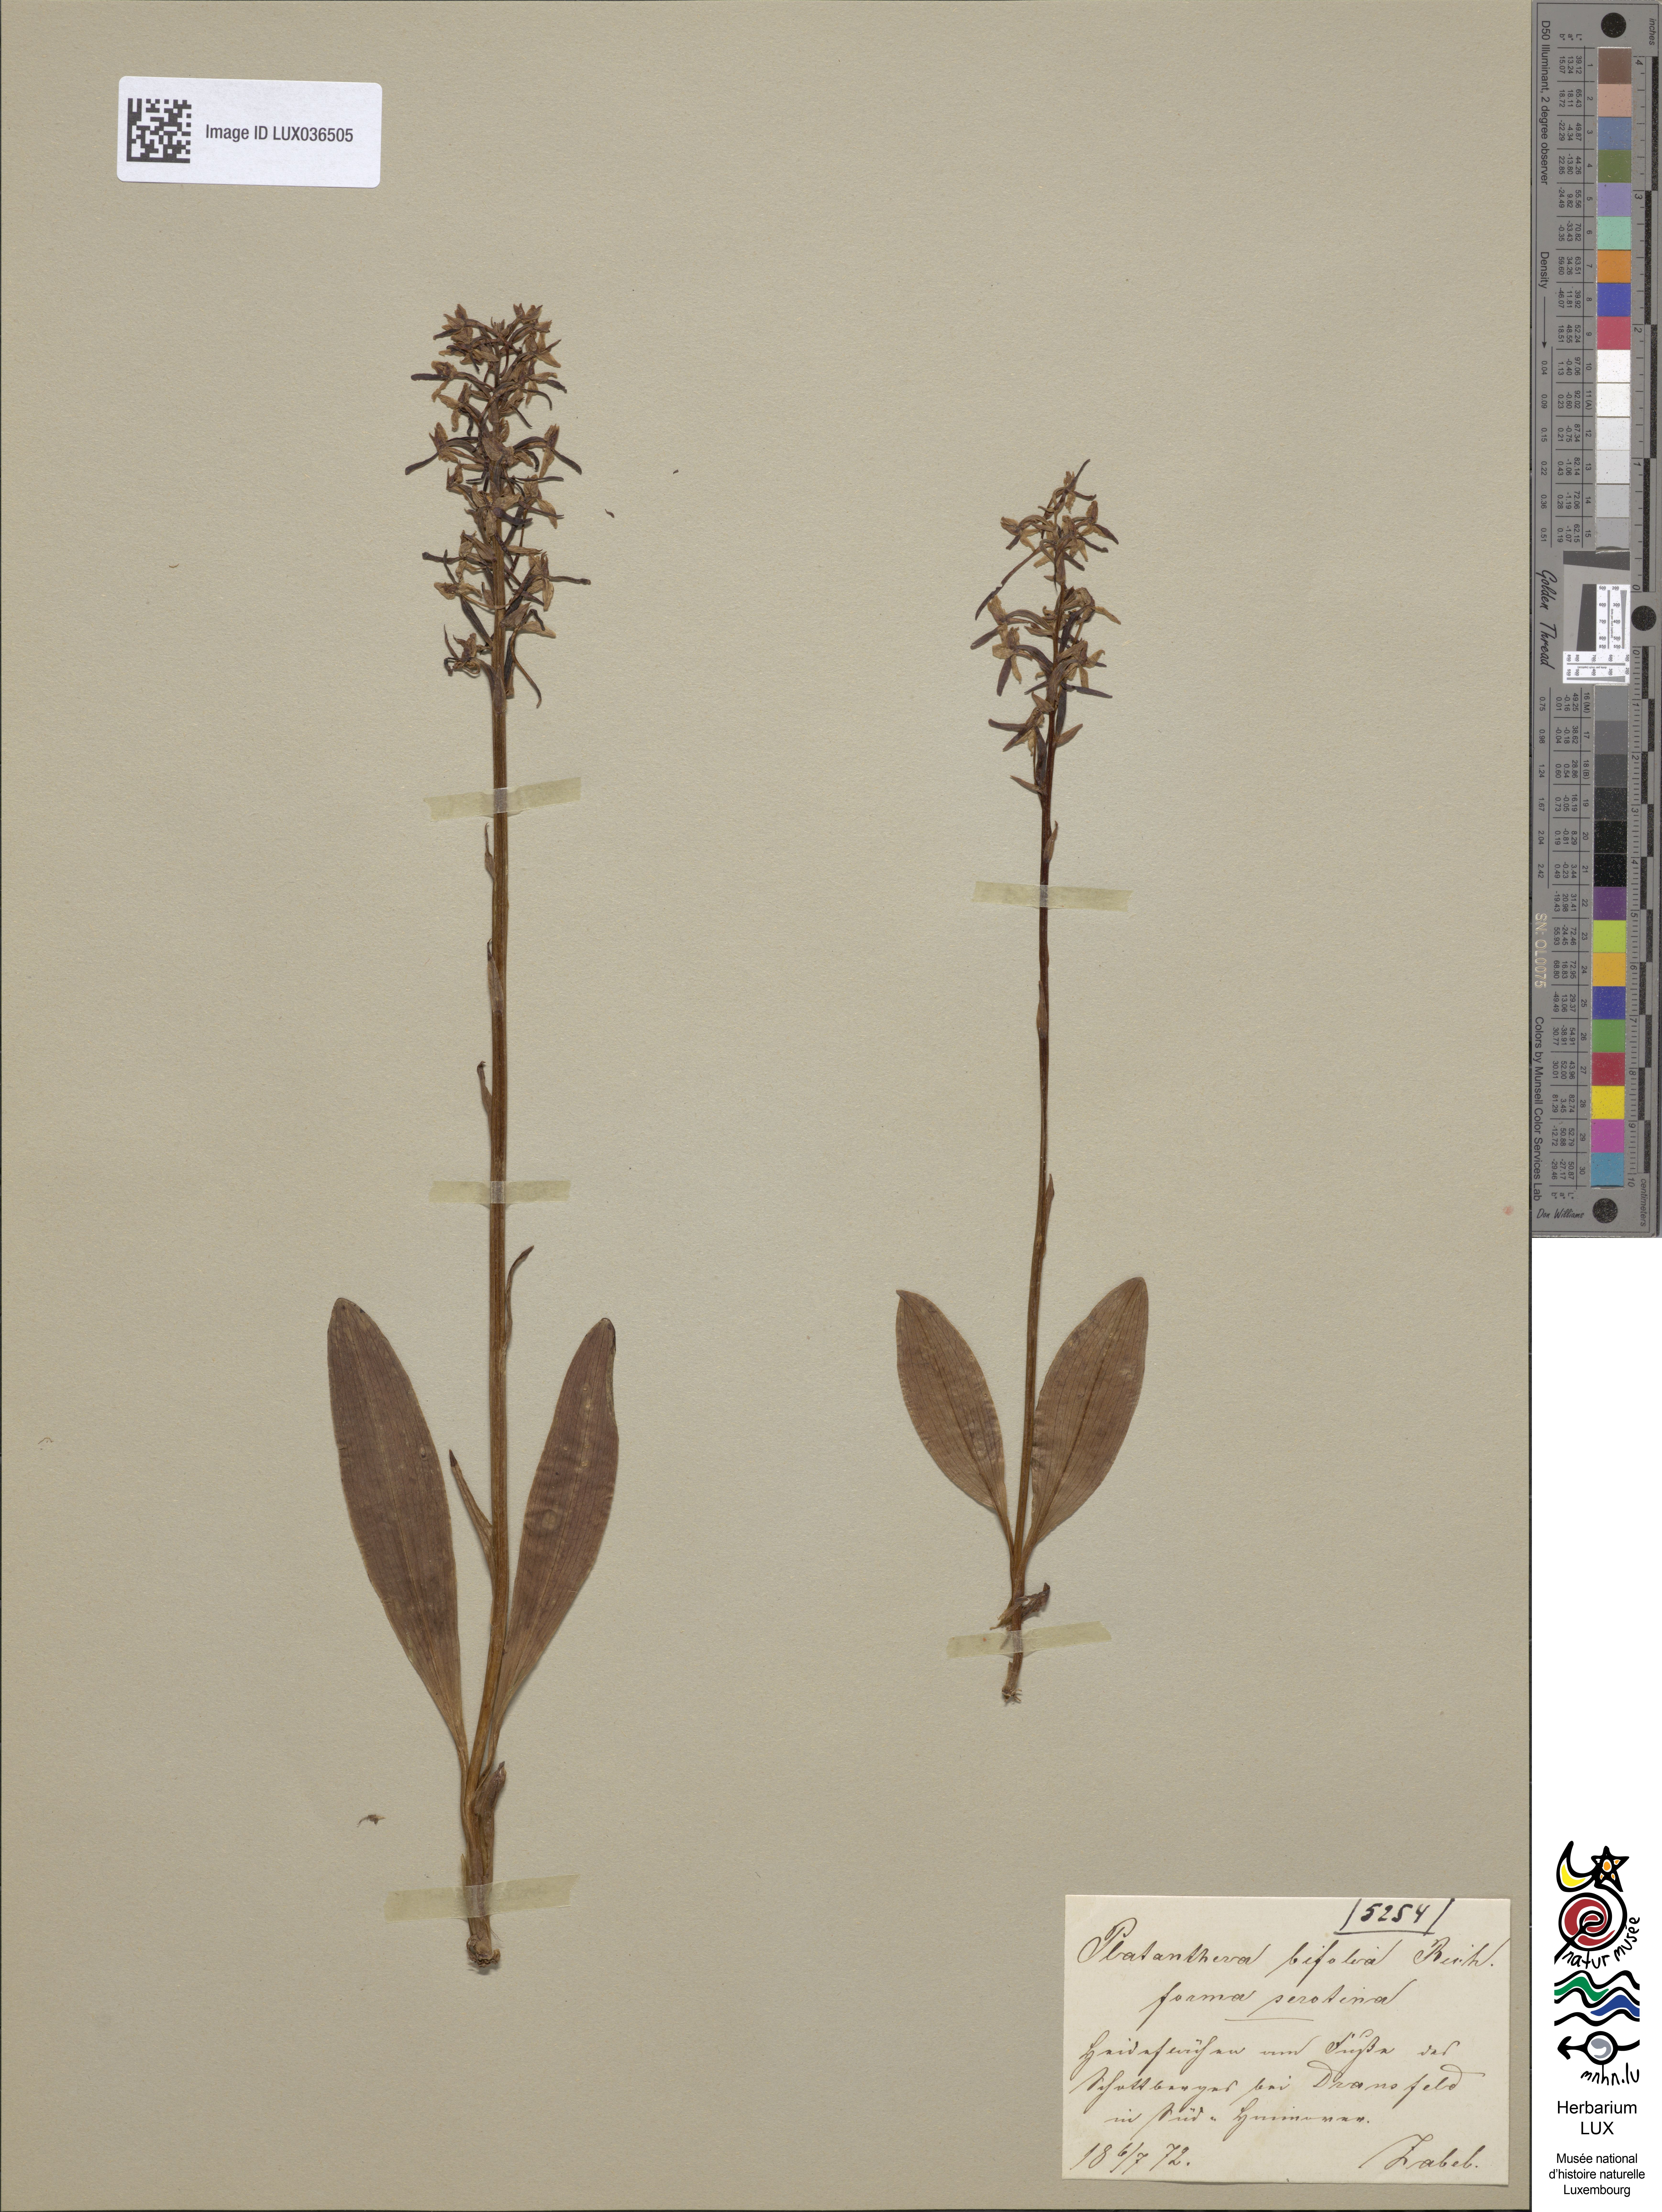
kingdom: Plantae
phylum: Tracheophyta
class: Liliopsida
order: Asparagales
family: Orchidaceae
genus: Platanthera
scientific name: Platanthera bifolia
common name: Lesser butterfly-orchid
